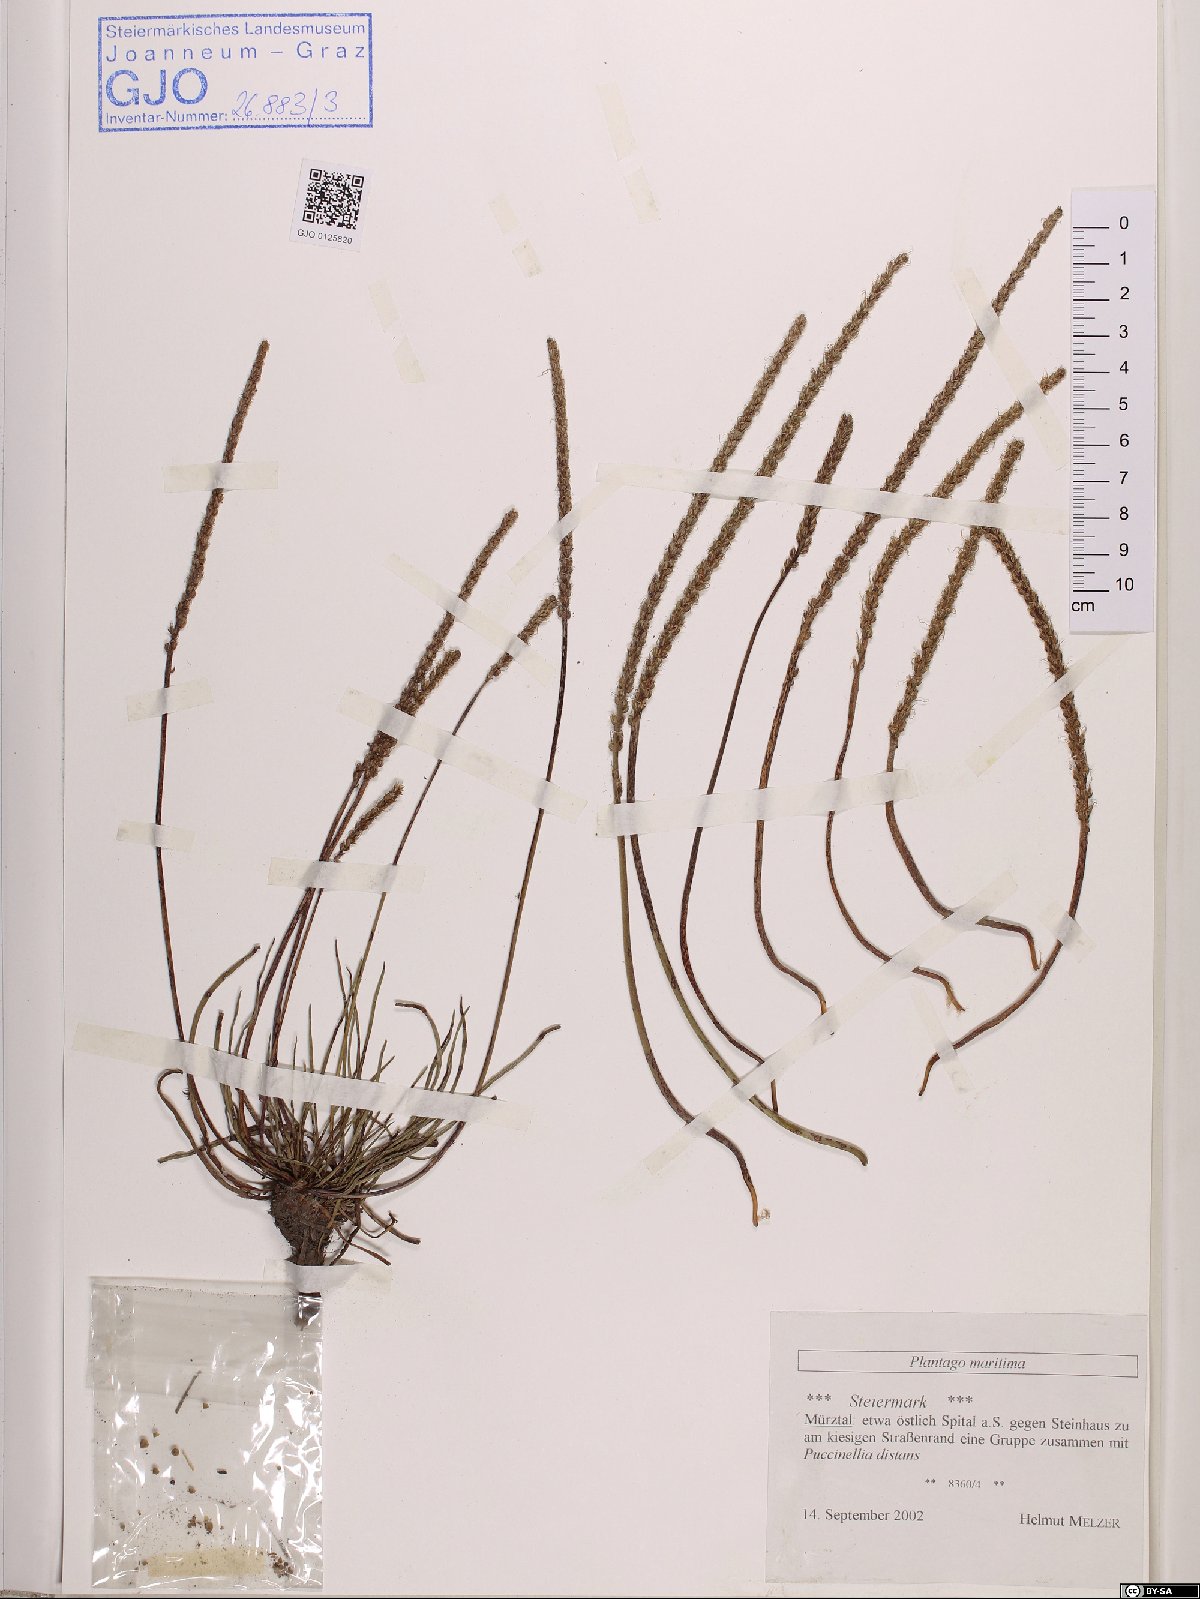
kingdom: Plantae
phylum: Tracheophyta
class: Magnoliopsida
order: Lamiales
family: Plantaginaceae
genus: Plantago
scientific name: Plantago maritima
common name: Sea plantain
